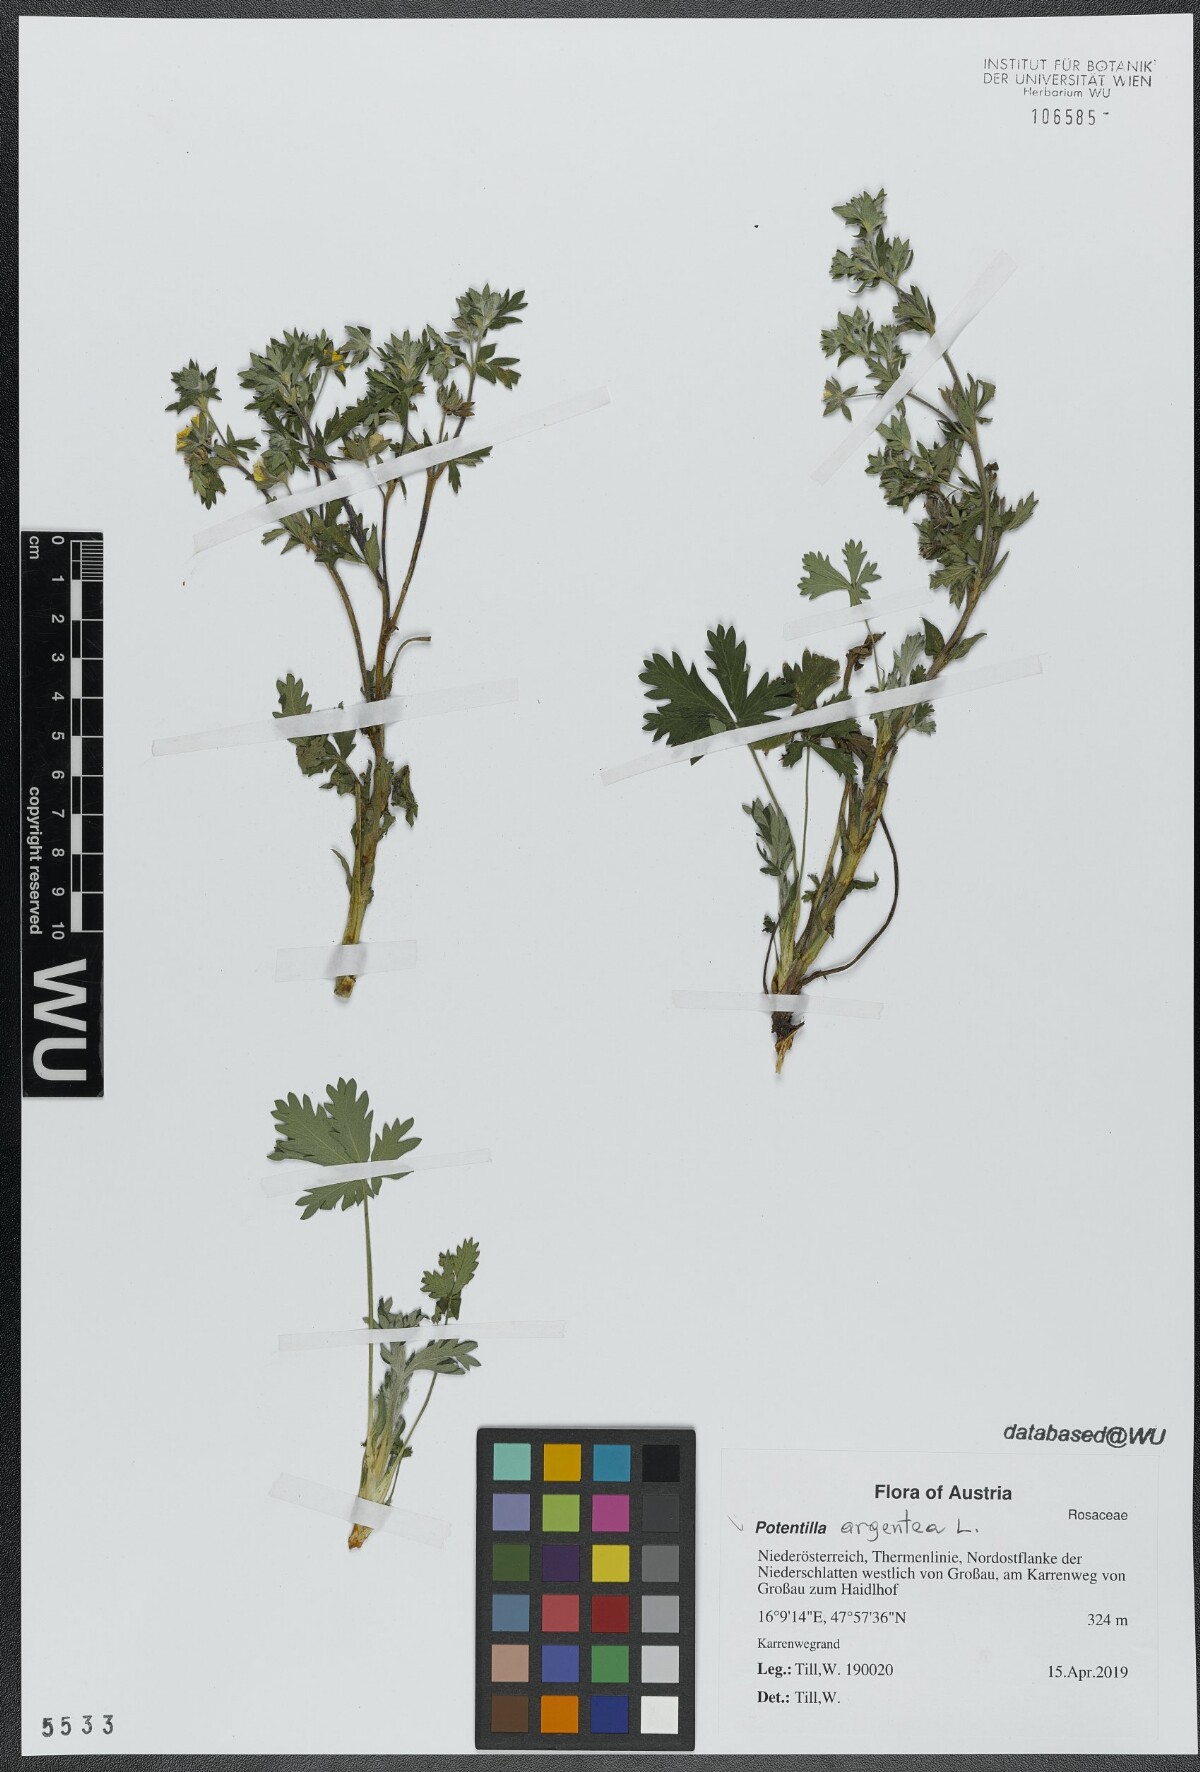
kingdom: Plantae
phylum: Tracheophyta
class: Magnoliopsida
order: Rosales
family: Rosaceae
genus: Potentilla
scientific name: Potentilla argentea
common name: Hoary cinquefoil
